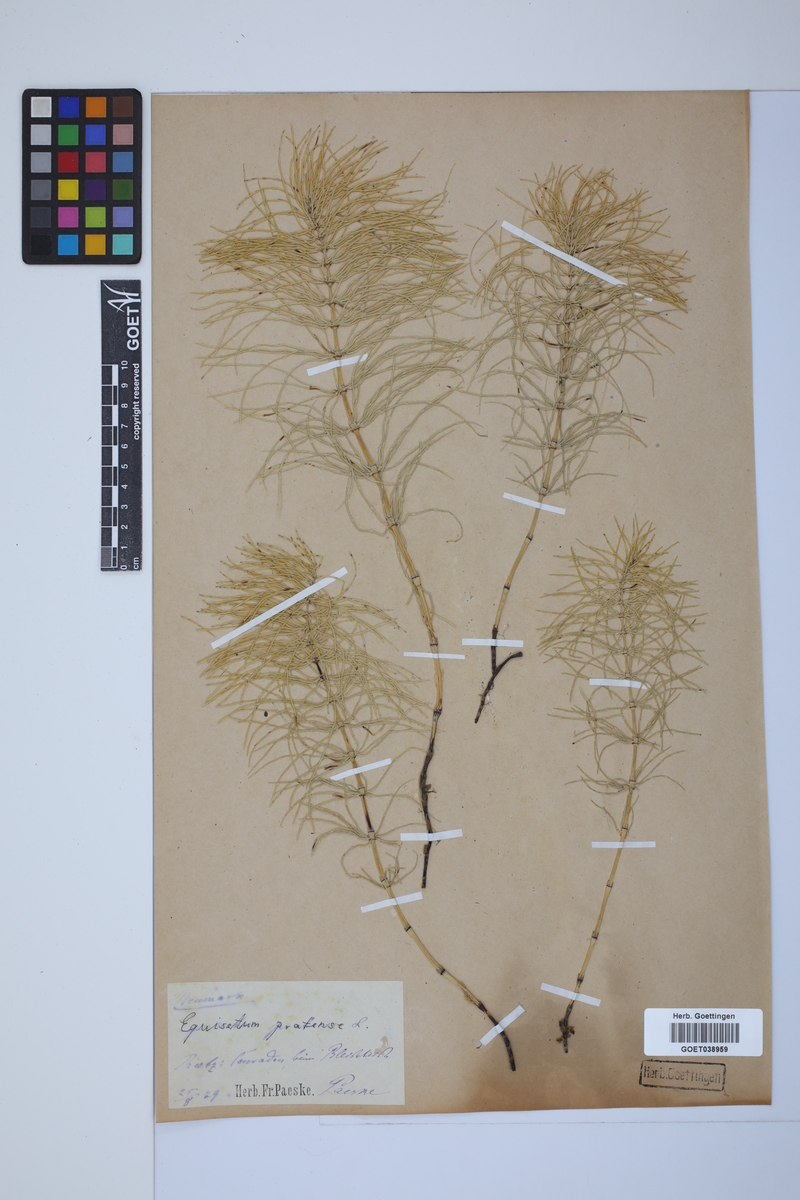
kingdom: Plantae
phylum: Tracheophyta
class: Polypodiopsida
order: Equisetales
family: Equisetaceae
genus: Equisetum
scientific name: Equisetum pratense
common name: Meadow horsetail
